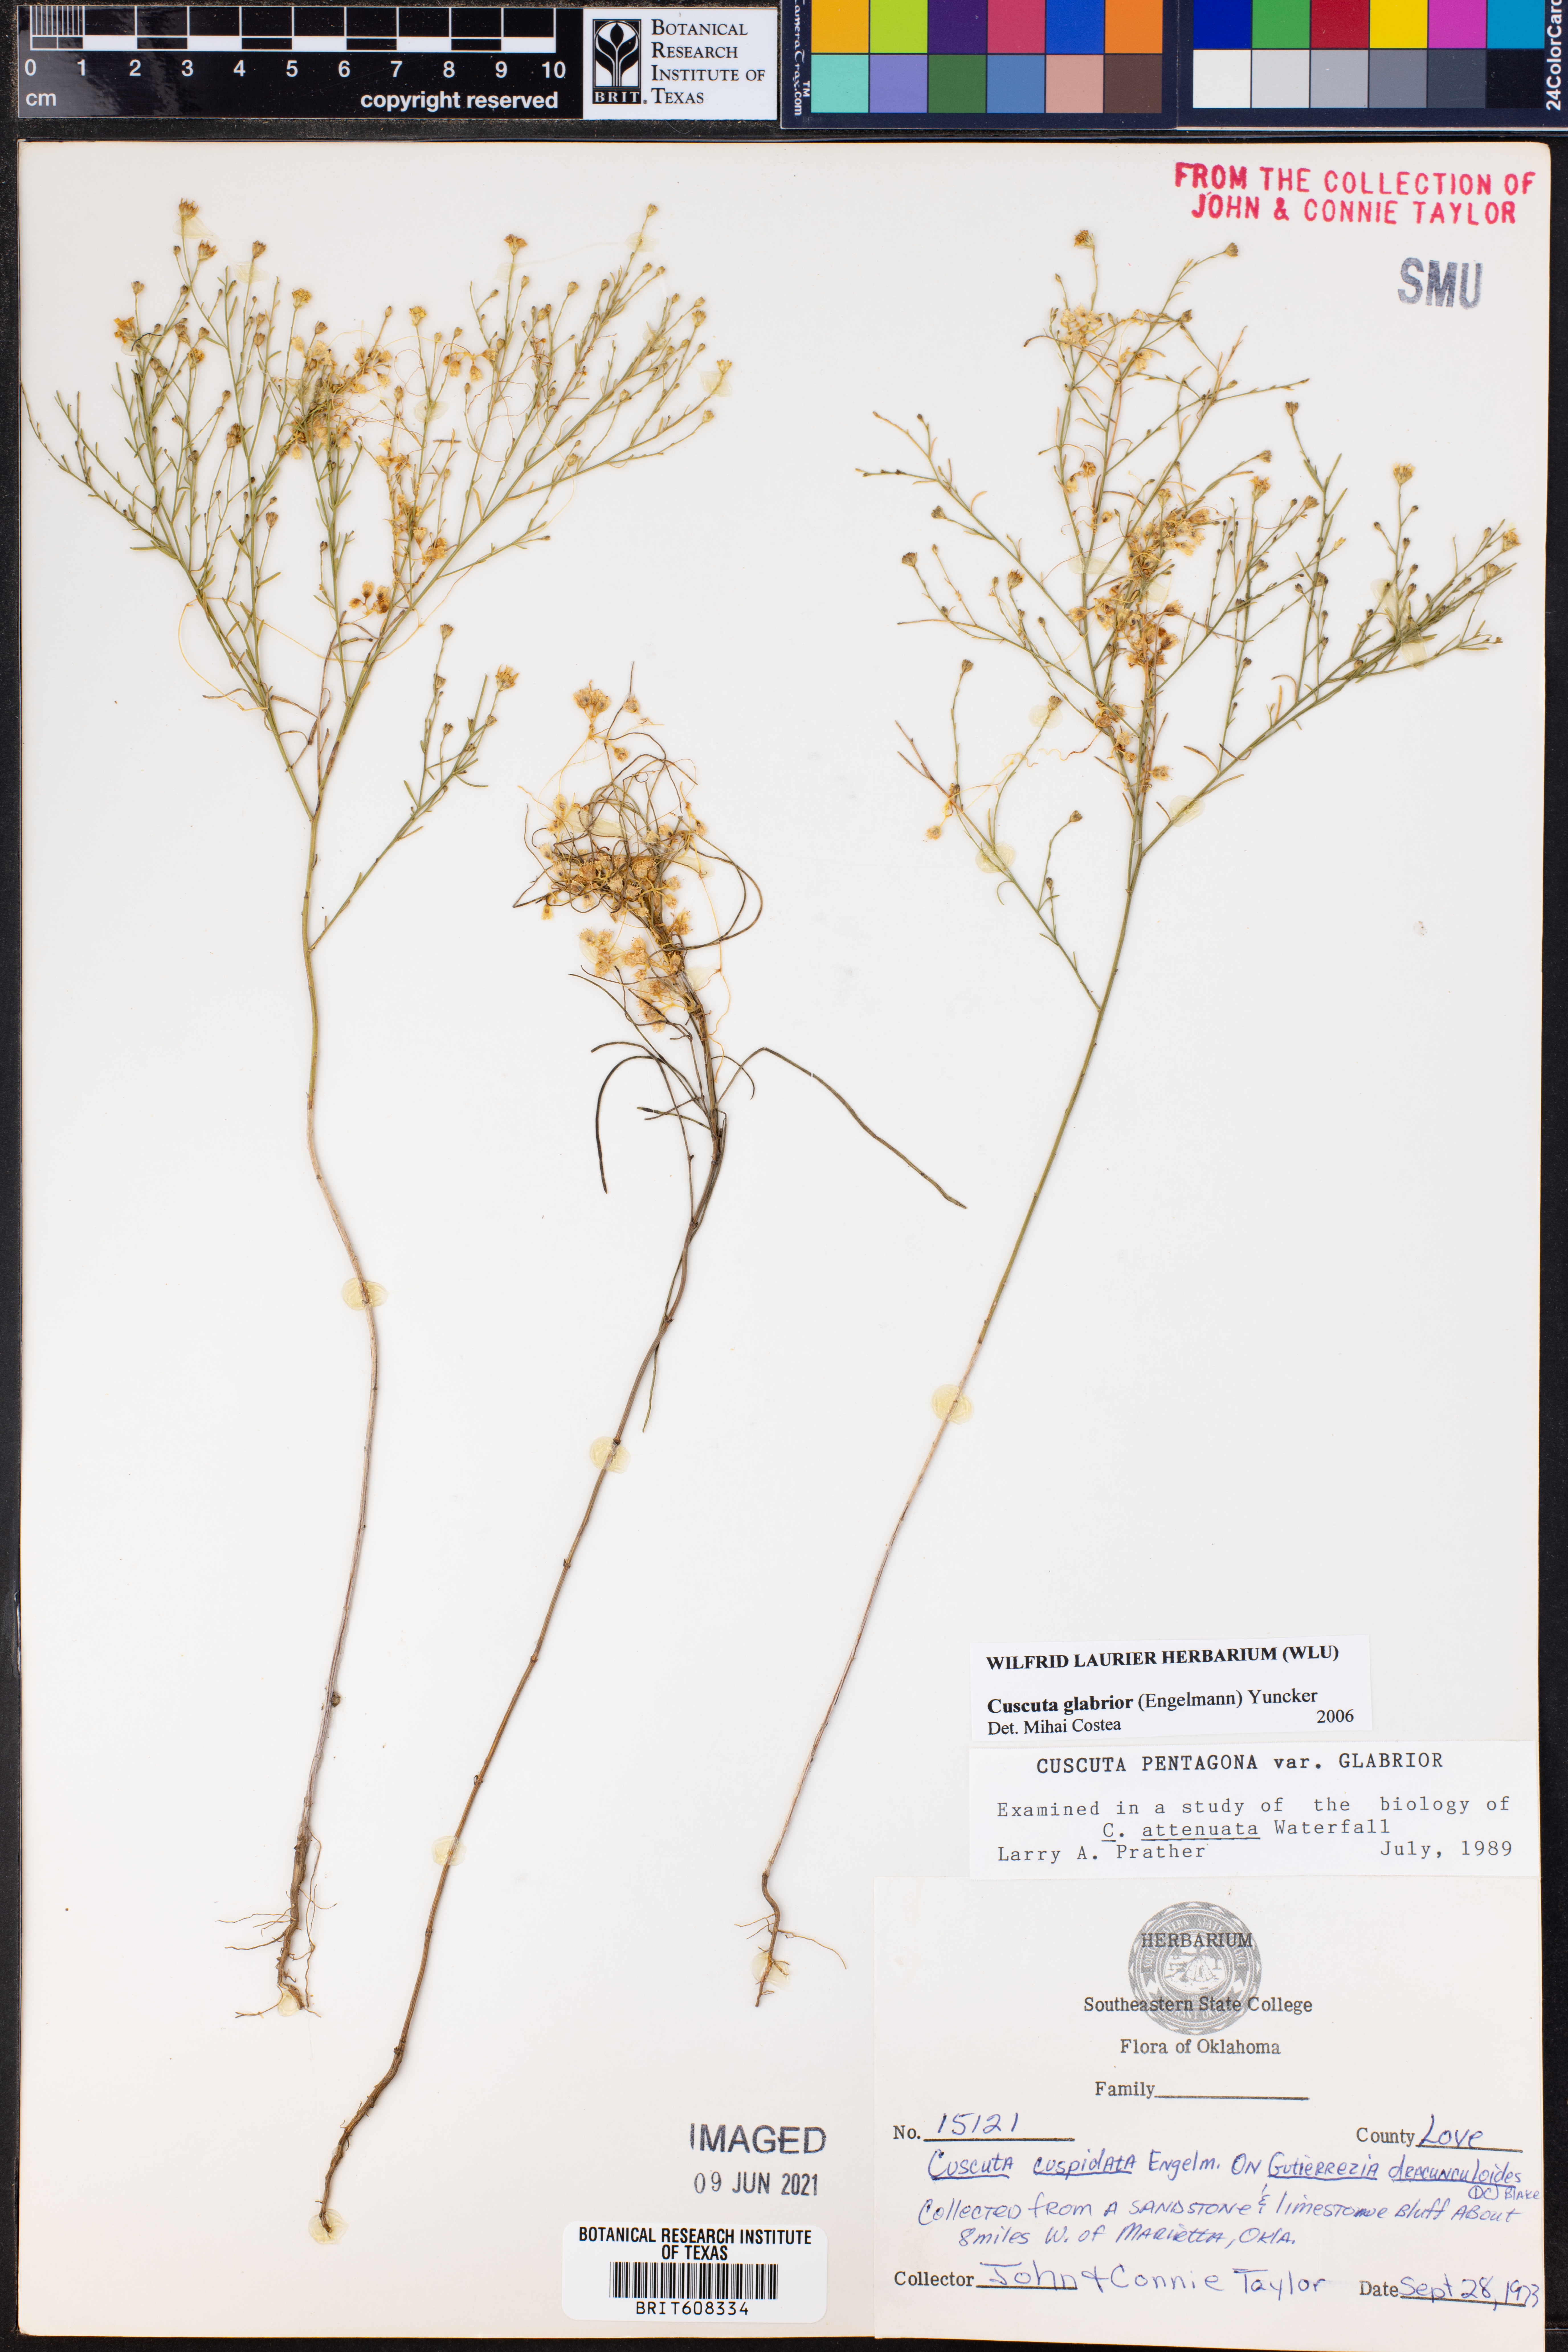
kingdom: Plantae
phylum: Tracheophyta
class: Magnoliopsida
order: Solanales
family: Convolvulaceae
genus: Cuscuta
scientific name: Cuscuta glabrior
